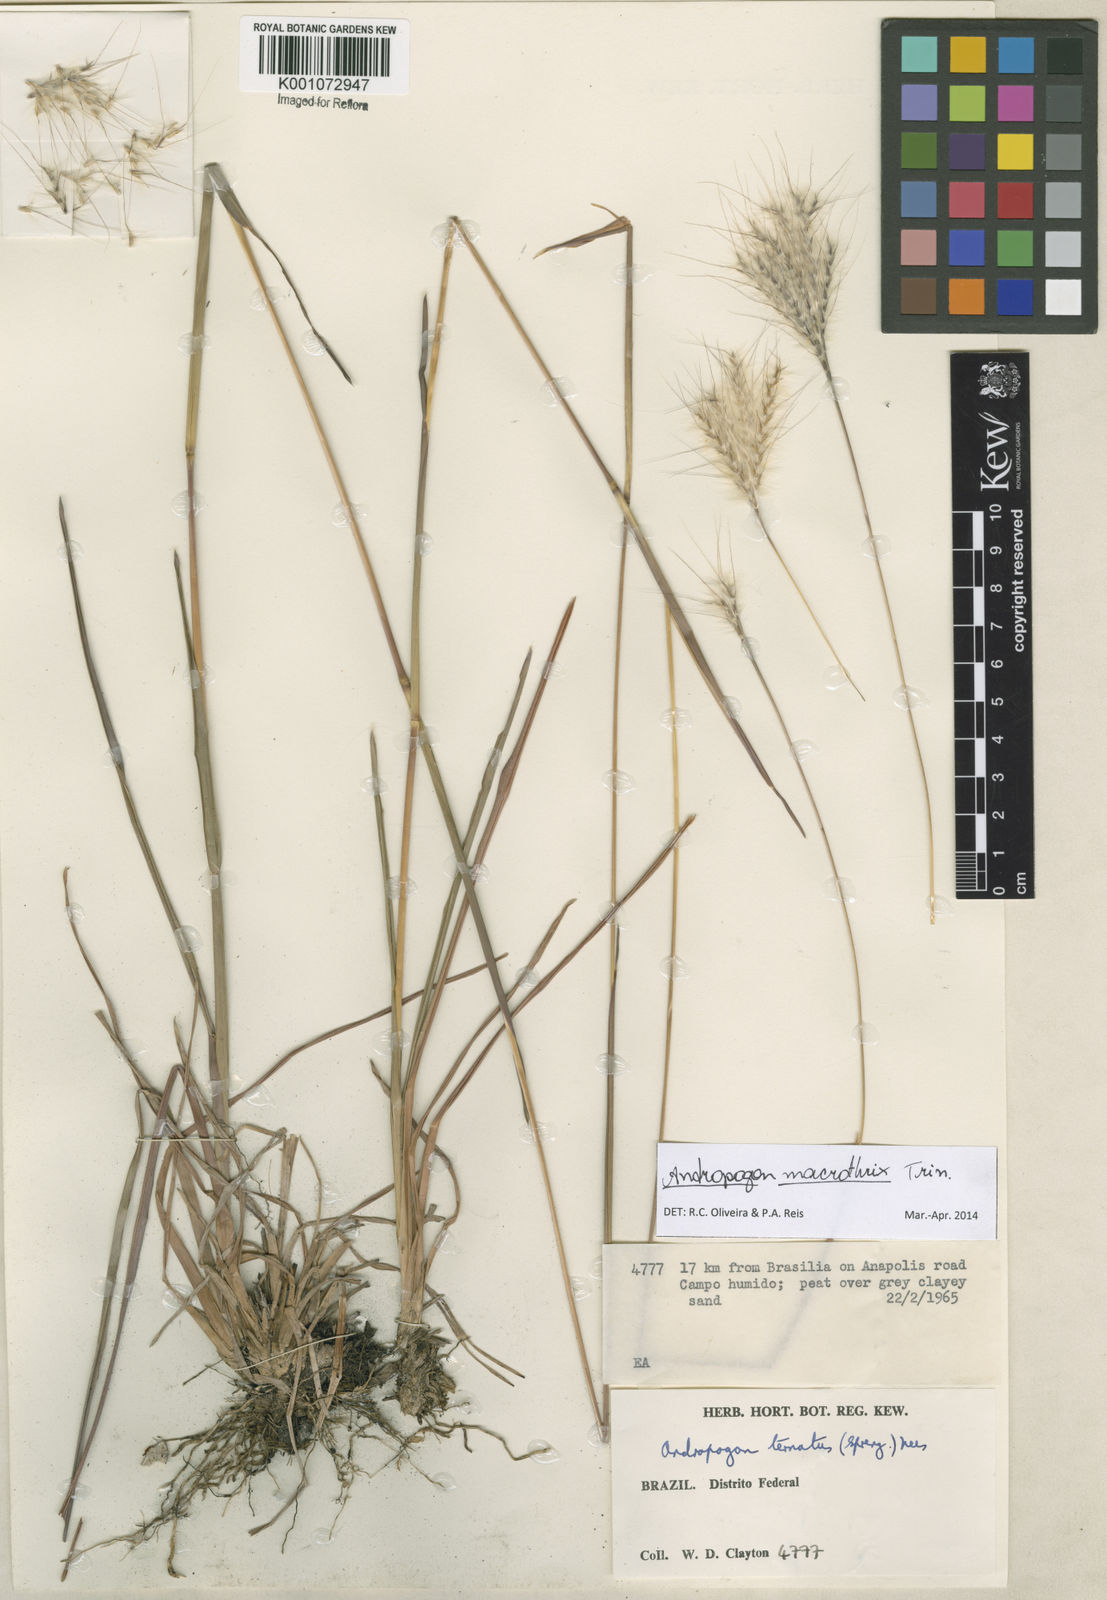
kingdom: Plantae
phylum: Tracheophyta
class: Liliopsida
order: Poales
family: Poaceae
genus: Andropogon
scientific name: Andropogon macrothrix
